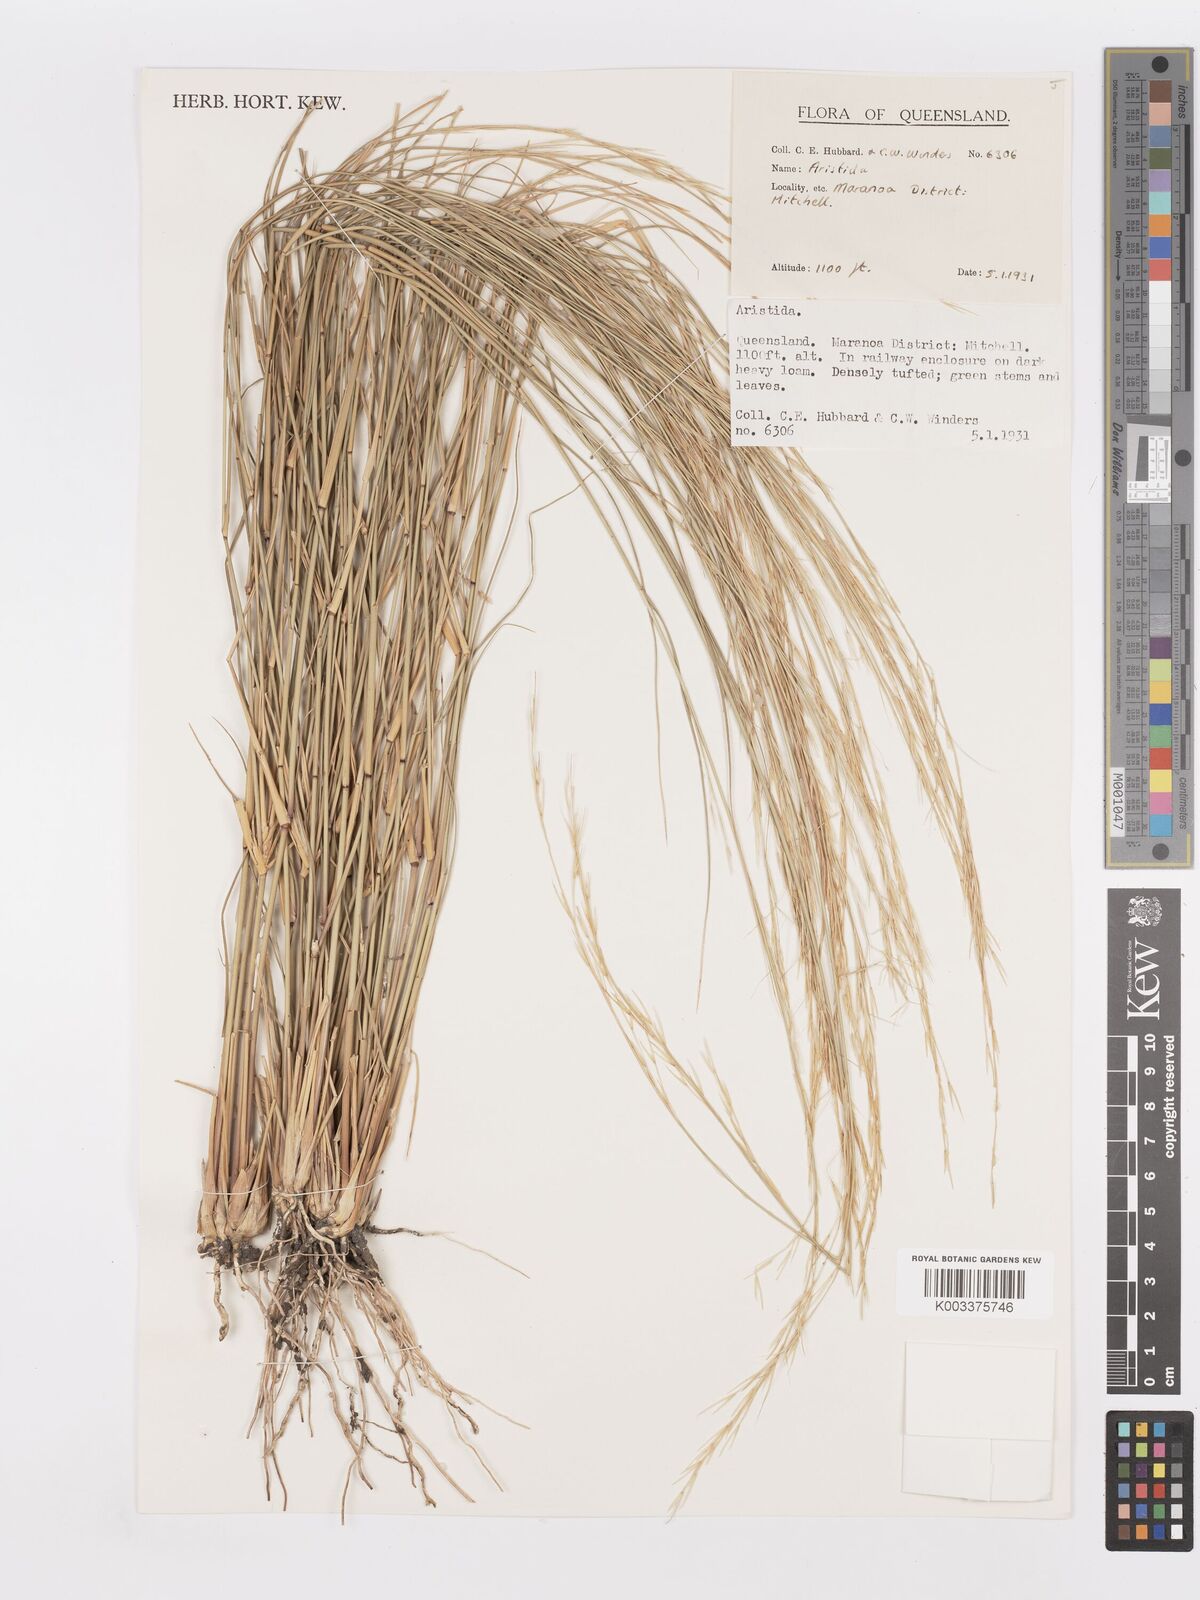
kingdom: Plantae
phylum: Tracheophyta
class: Liliopsida
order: Poales
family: Poaceae
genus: Aristida
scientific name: Aristida
